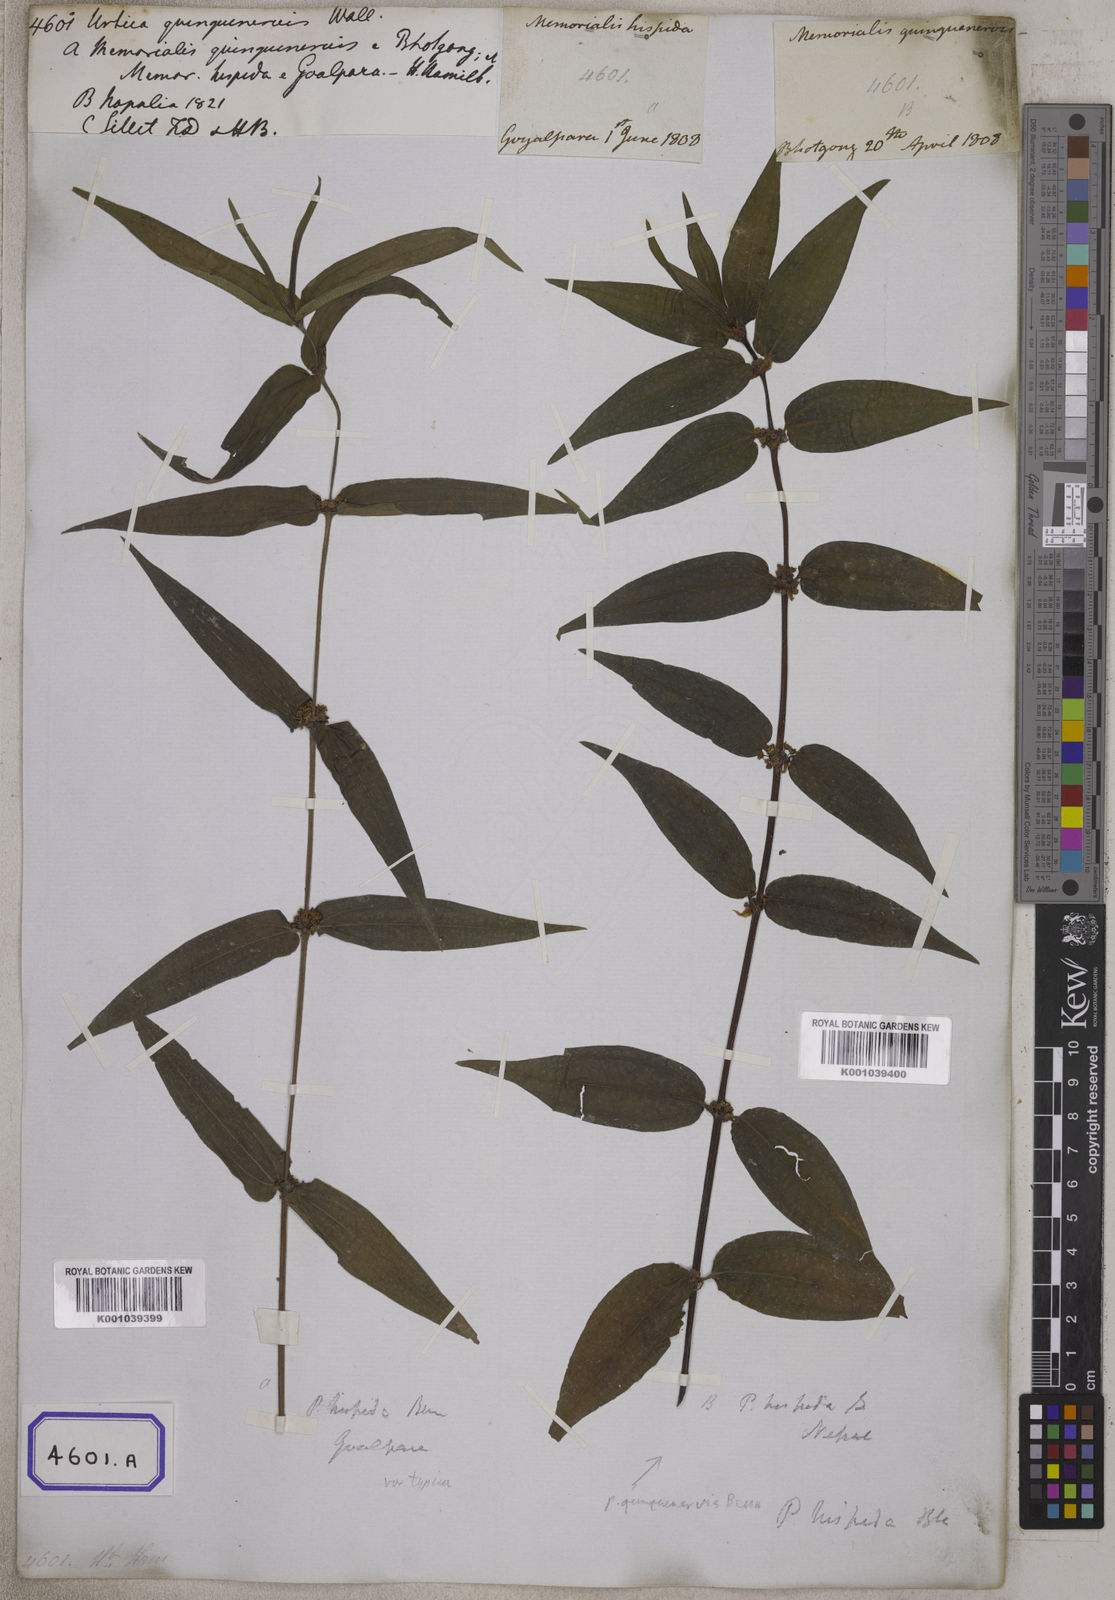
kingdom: Plantae
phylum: Tracheophyta
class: Magnoliopsida
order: Rosales
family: Urticaceae
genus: Gonostegia
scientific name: Gonostegia triandra
